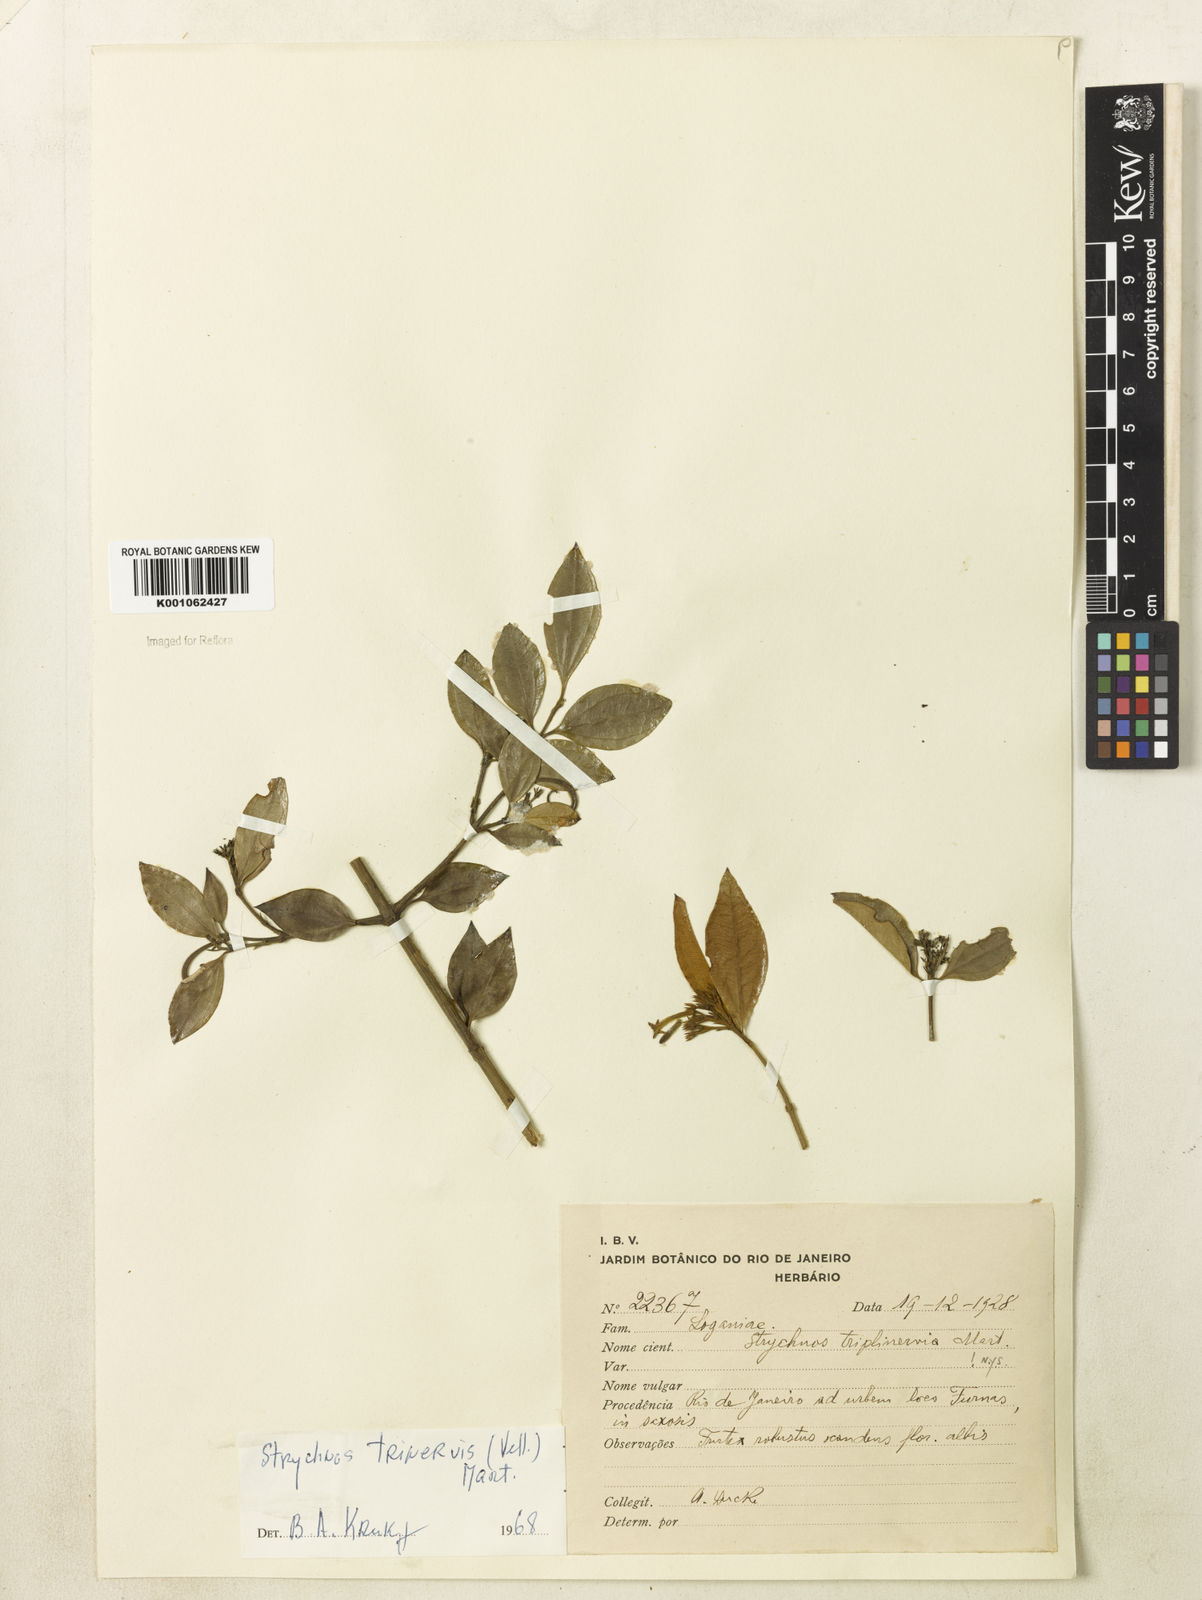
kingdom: Plantae
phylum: Tracheophyta
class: Magnoliopsida
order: Gentianales
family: Loganiaceae
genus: Strychnos
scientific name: Strychnos
